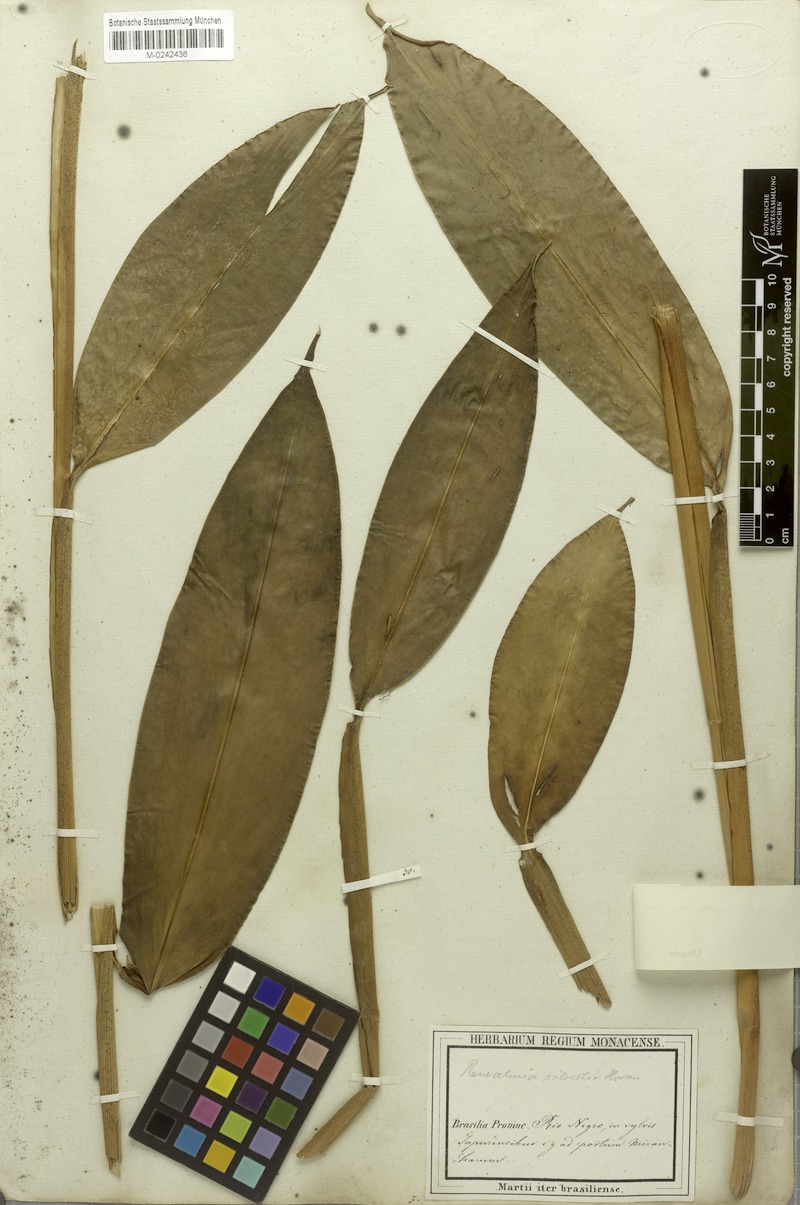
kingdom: Plantae
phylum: Tracheophyta
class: Liliopsida
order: Zingiberales
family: Zingiberaceae
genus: Renealmia
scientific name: Renealmia striata
